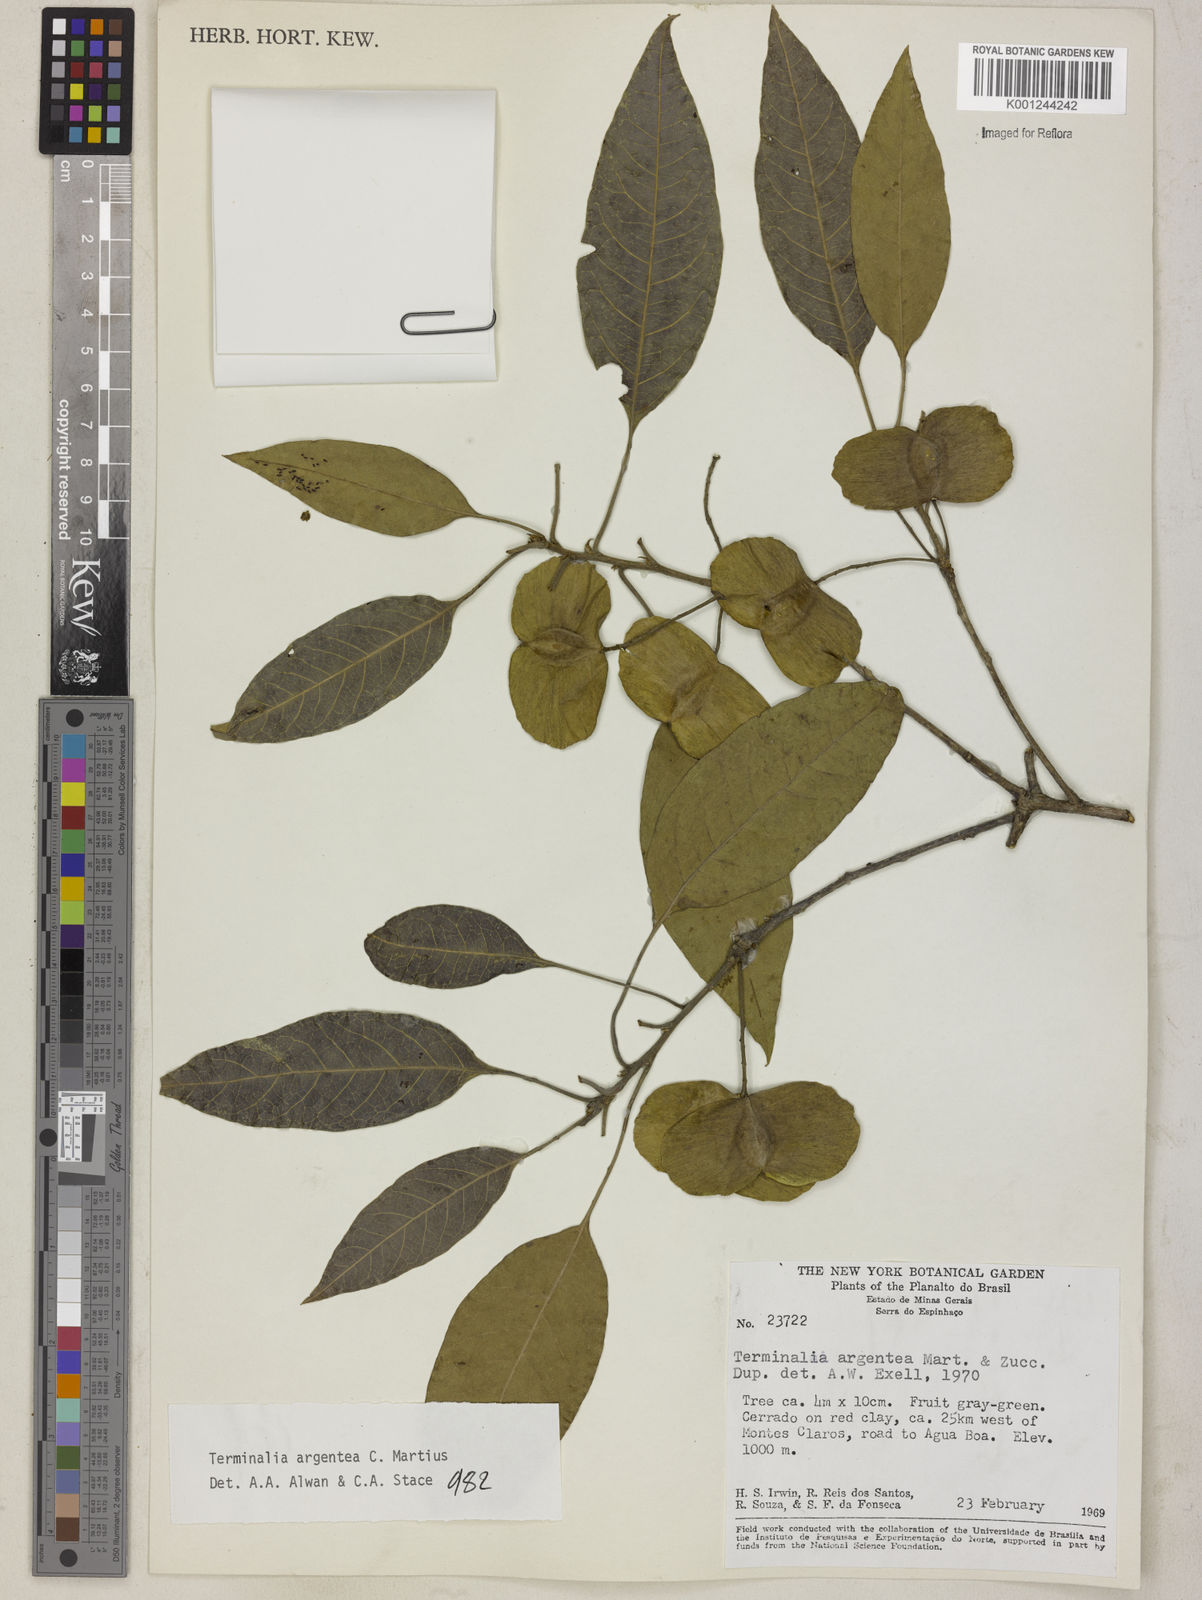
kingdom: Plantae
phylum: Tracheophyta
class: Magnoliopsida
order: Myrtales
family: Combretaceae
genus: Terminalia
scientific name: Terminalia argentea
